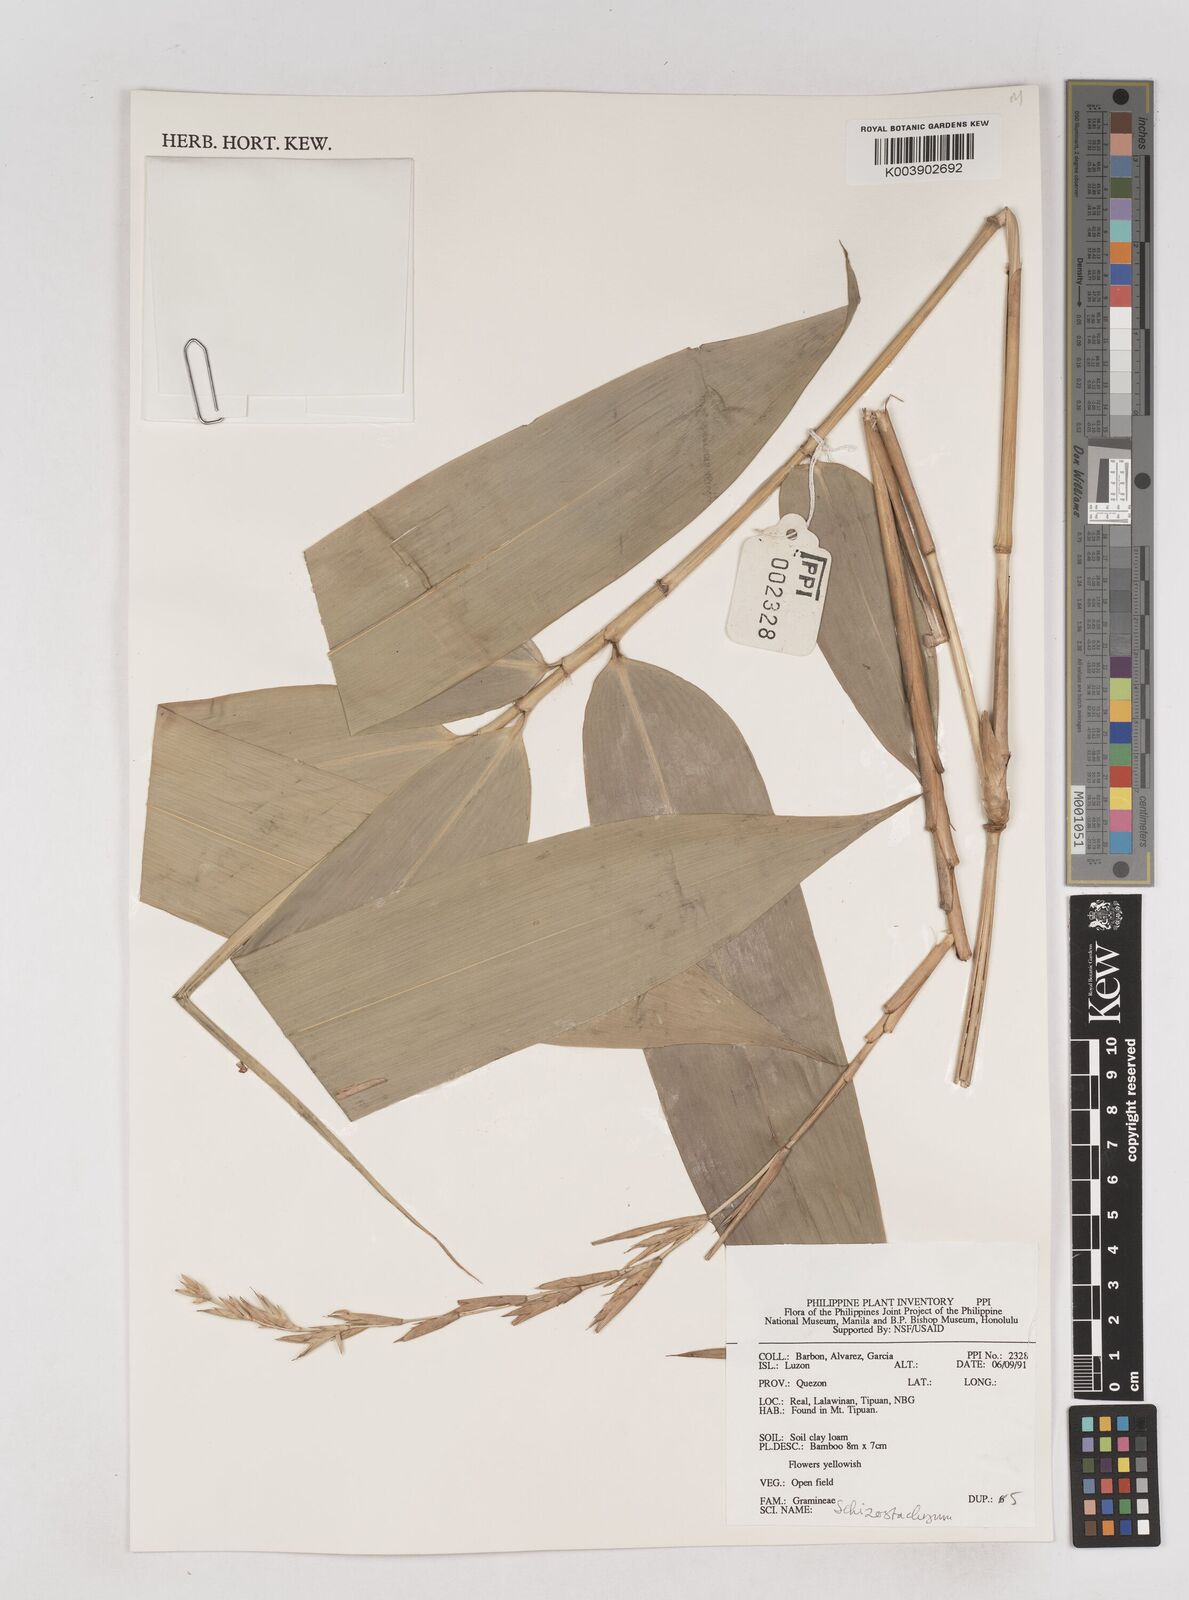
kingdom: Plantae
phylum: Tracheophyta
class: Liliopsida
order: Poales
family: Poaceae
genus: Schizostachyum
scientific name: Schizostachyum
